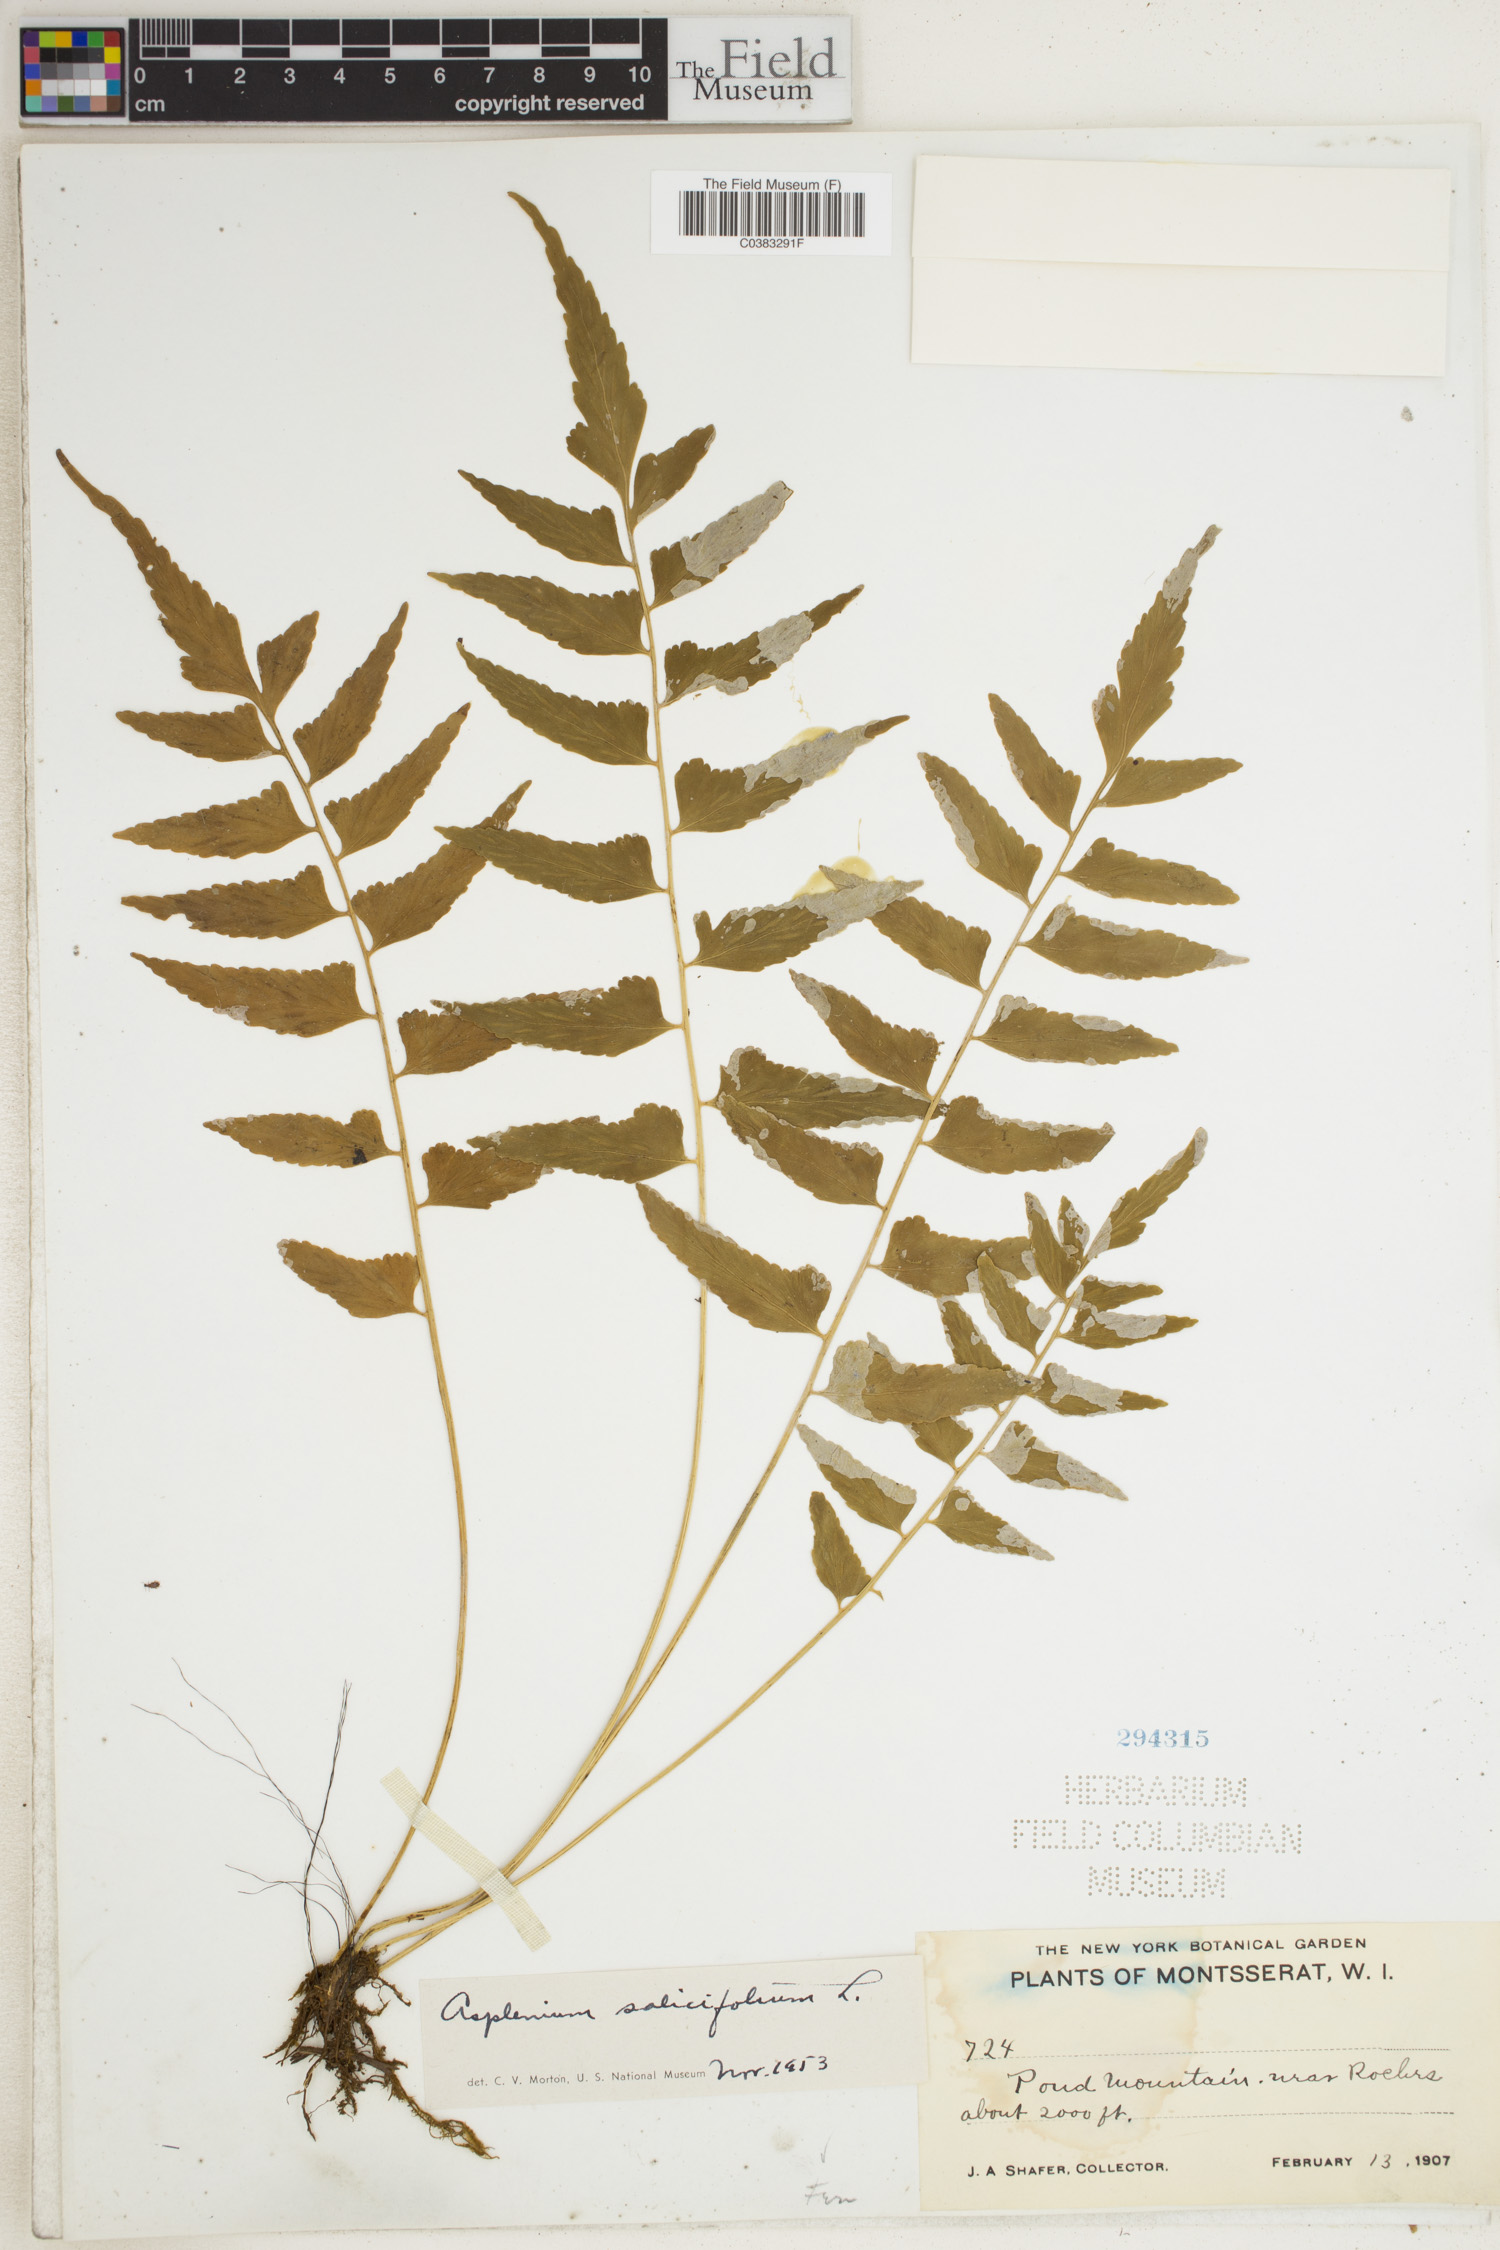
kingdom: Plantae
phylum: Tracheophyta
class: Polypodiopsida
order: Polypodiales
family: Aspleniaceae
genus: Asplenium
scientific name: Asplenium salicifolium
